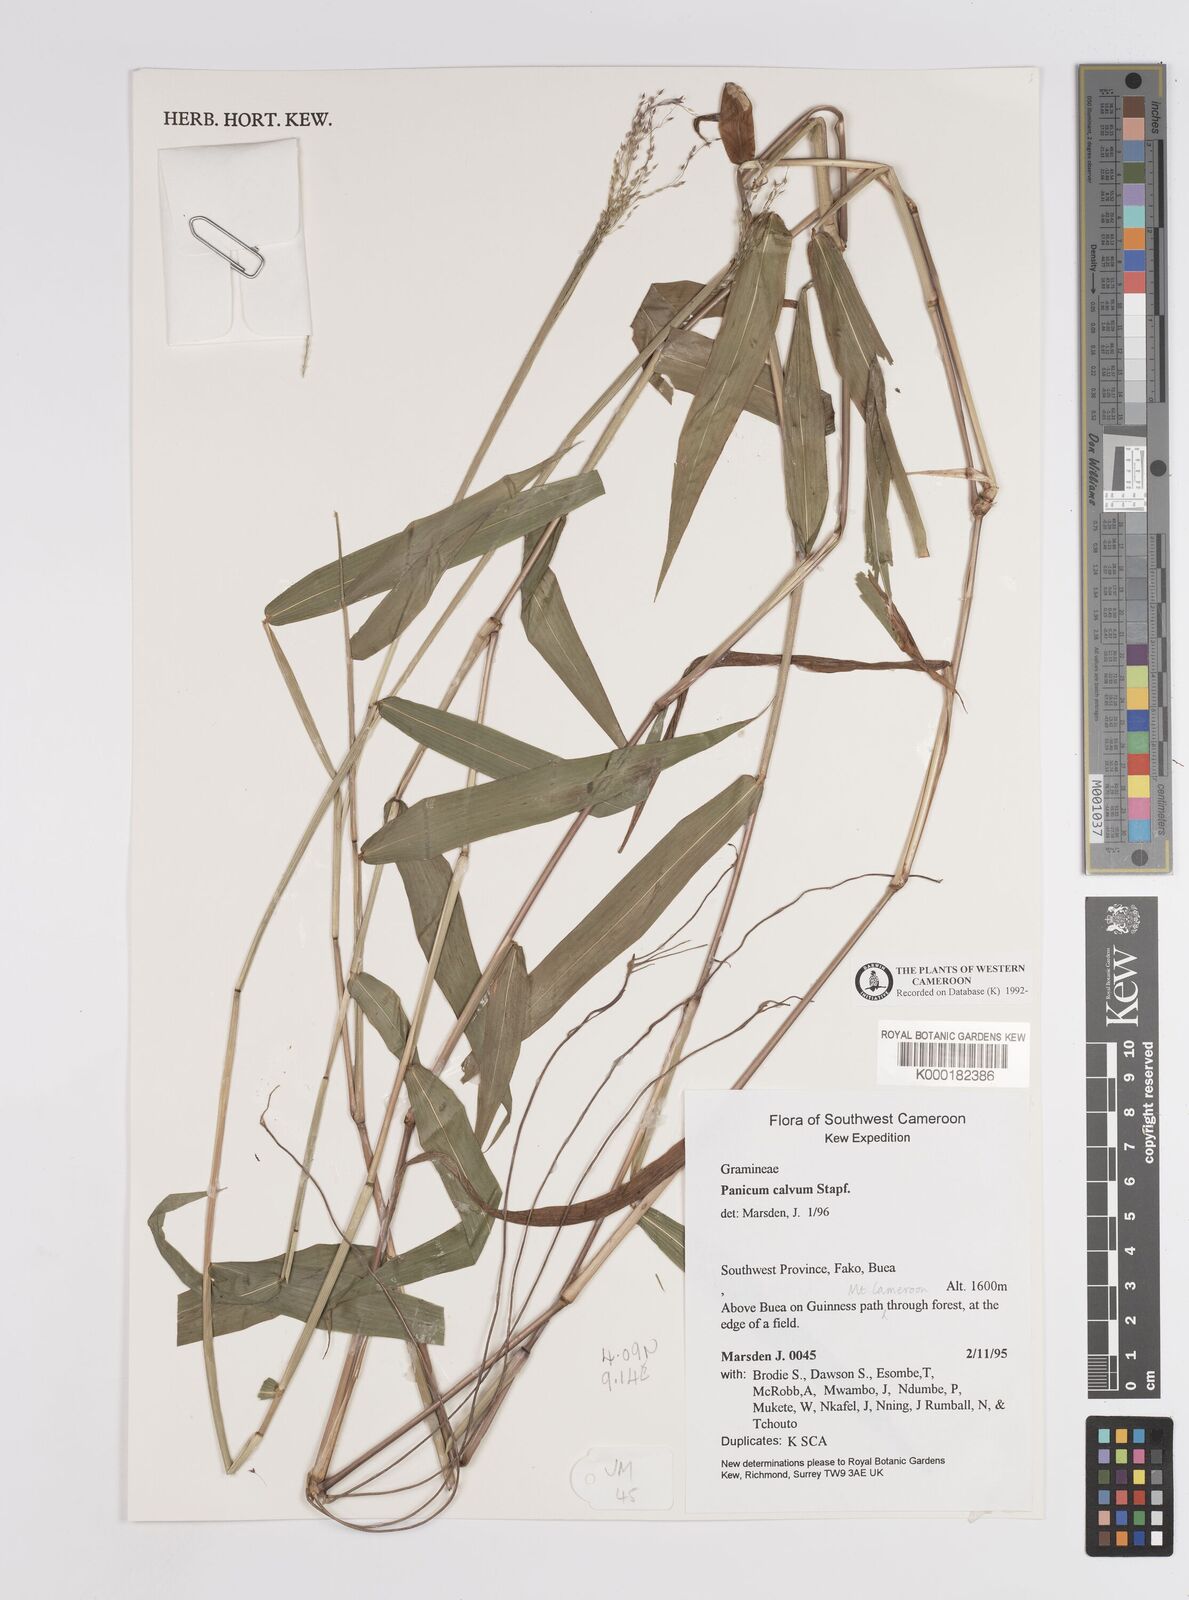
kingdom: Plantae
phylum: Tracheophyta
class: Liliopsida
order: Poales
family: Poaceae
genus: Panicum
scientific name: Panicum calvum
